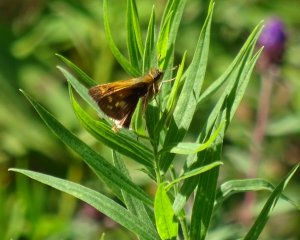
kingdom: Animalia
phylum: Arthropoda
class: Insecta
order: Lepidoptera
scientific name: Lepidoptera
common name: Butterflies
